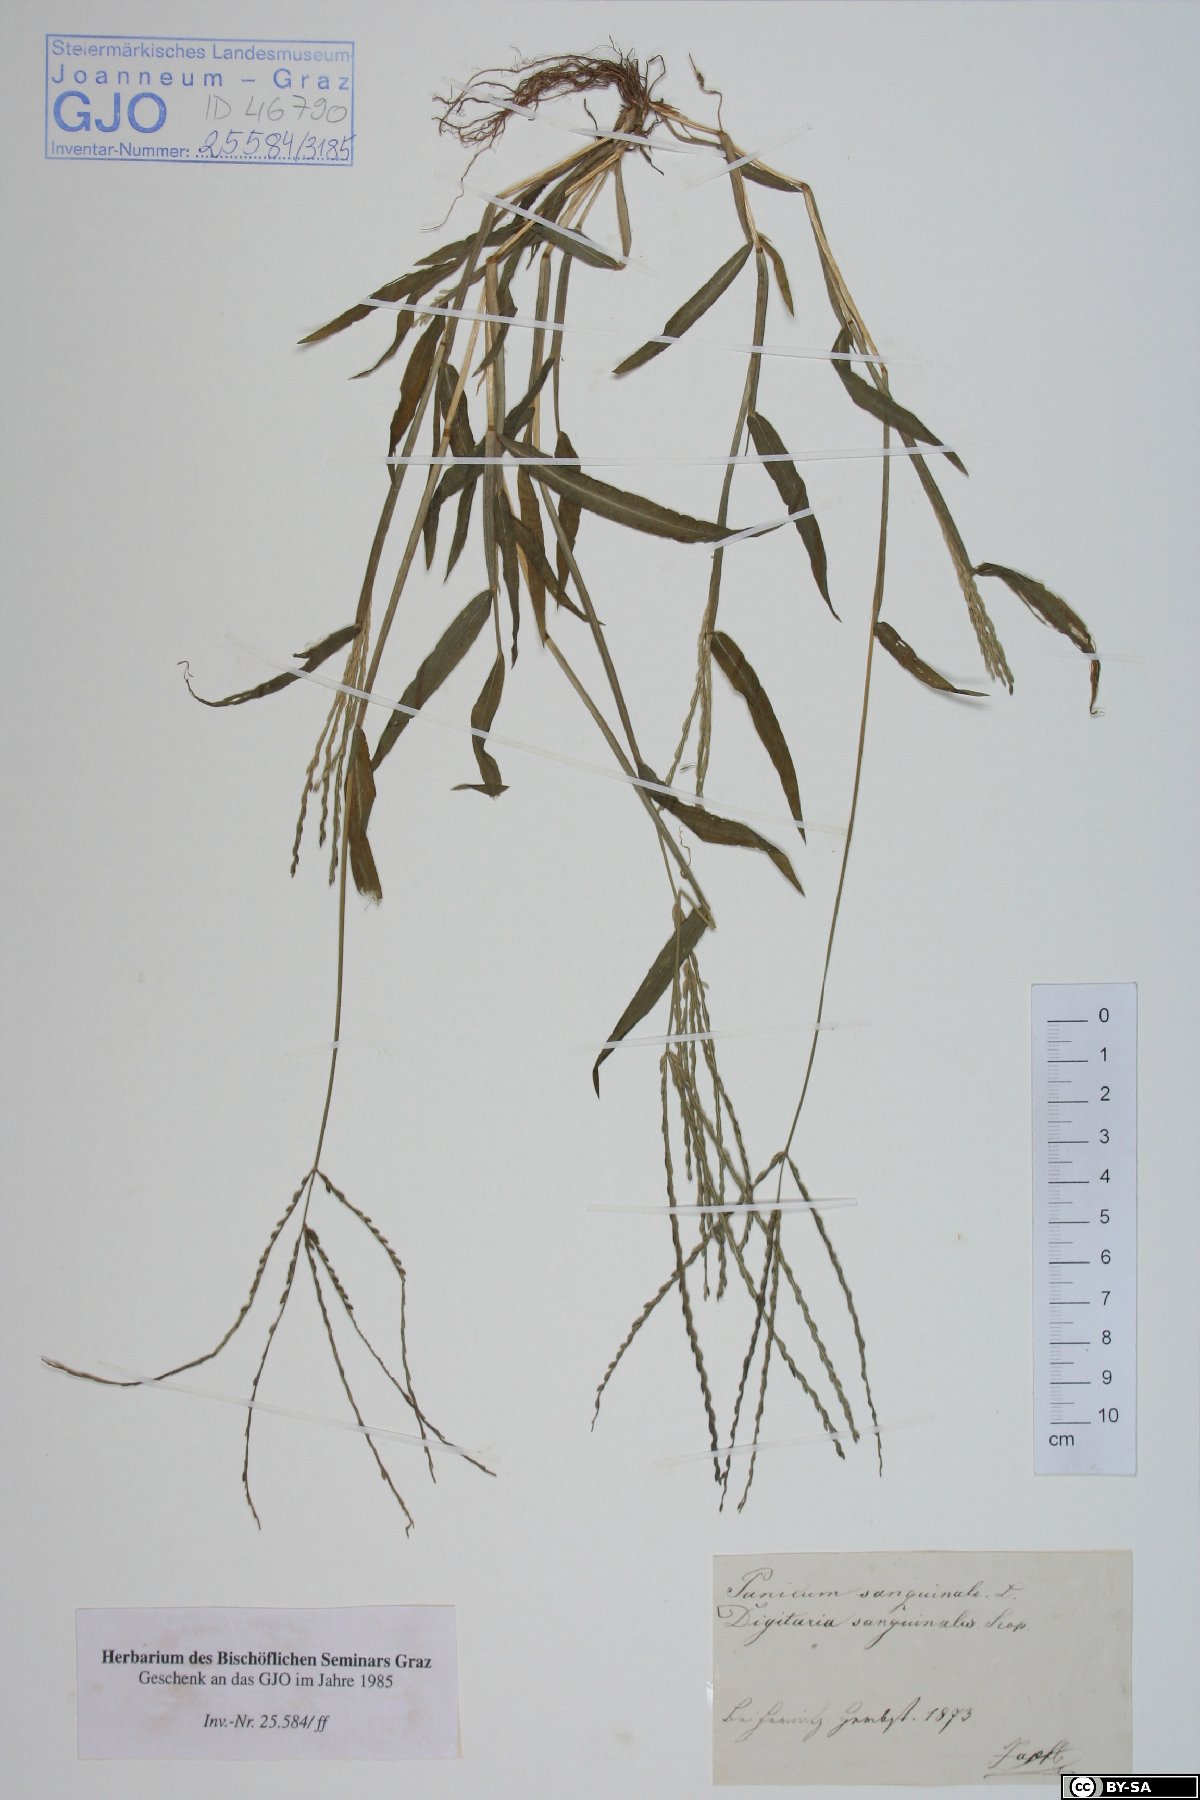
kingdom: Plantae
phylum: Tracheophyta
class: Liliopsida
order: Poales
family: Poaceae
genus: Digitaria
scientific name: Digitaria sanguinalis
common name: Hairy crabgrass
